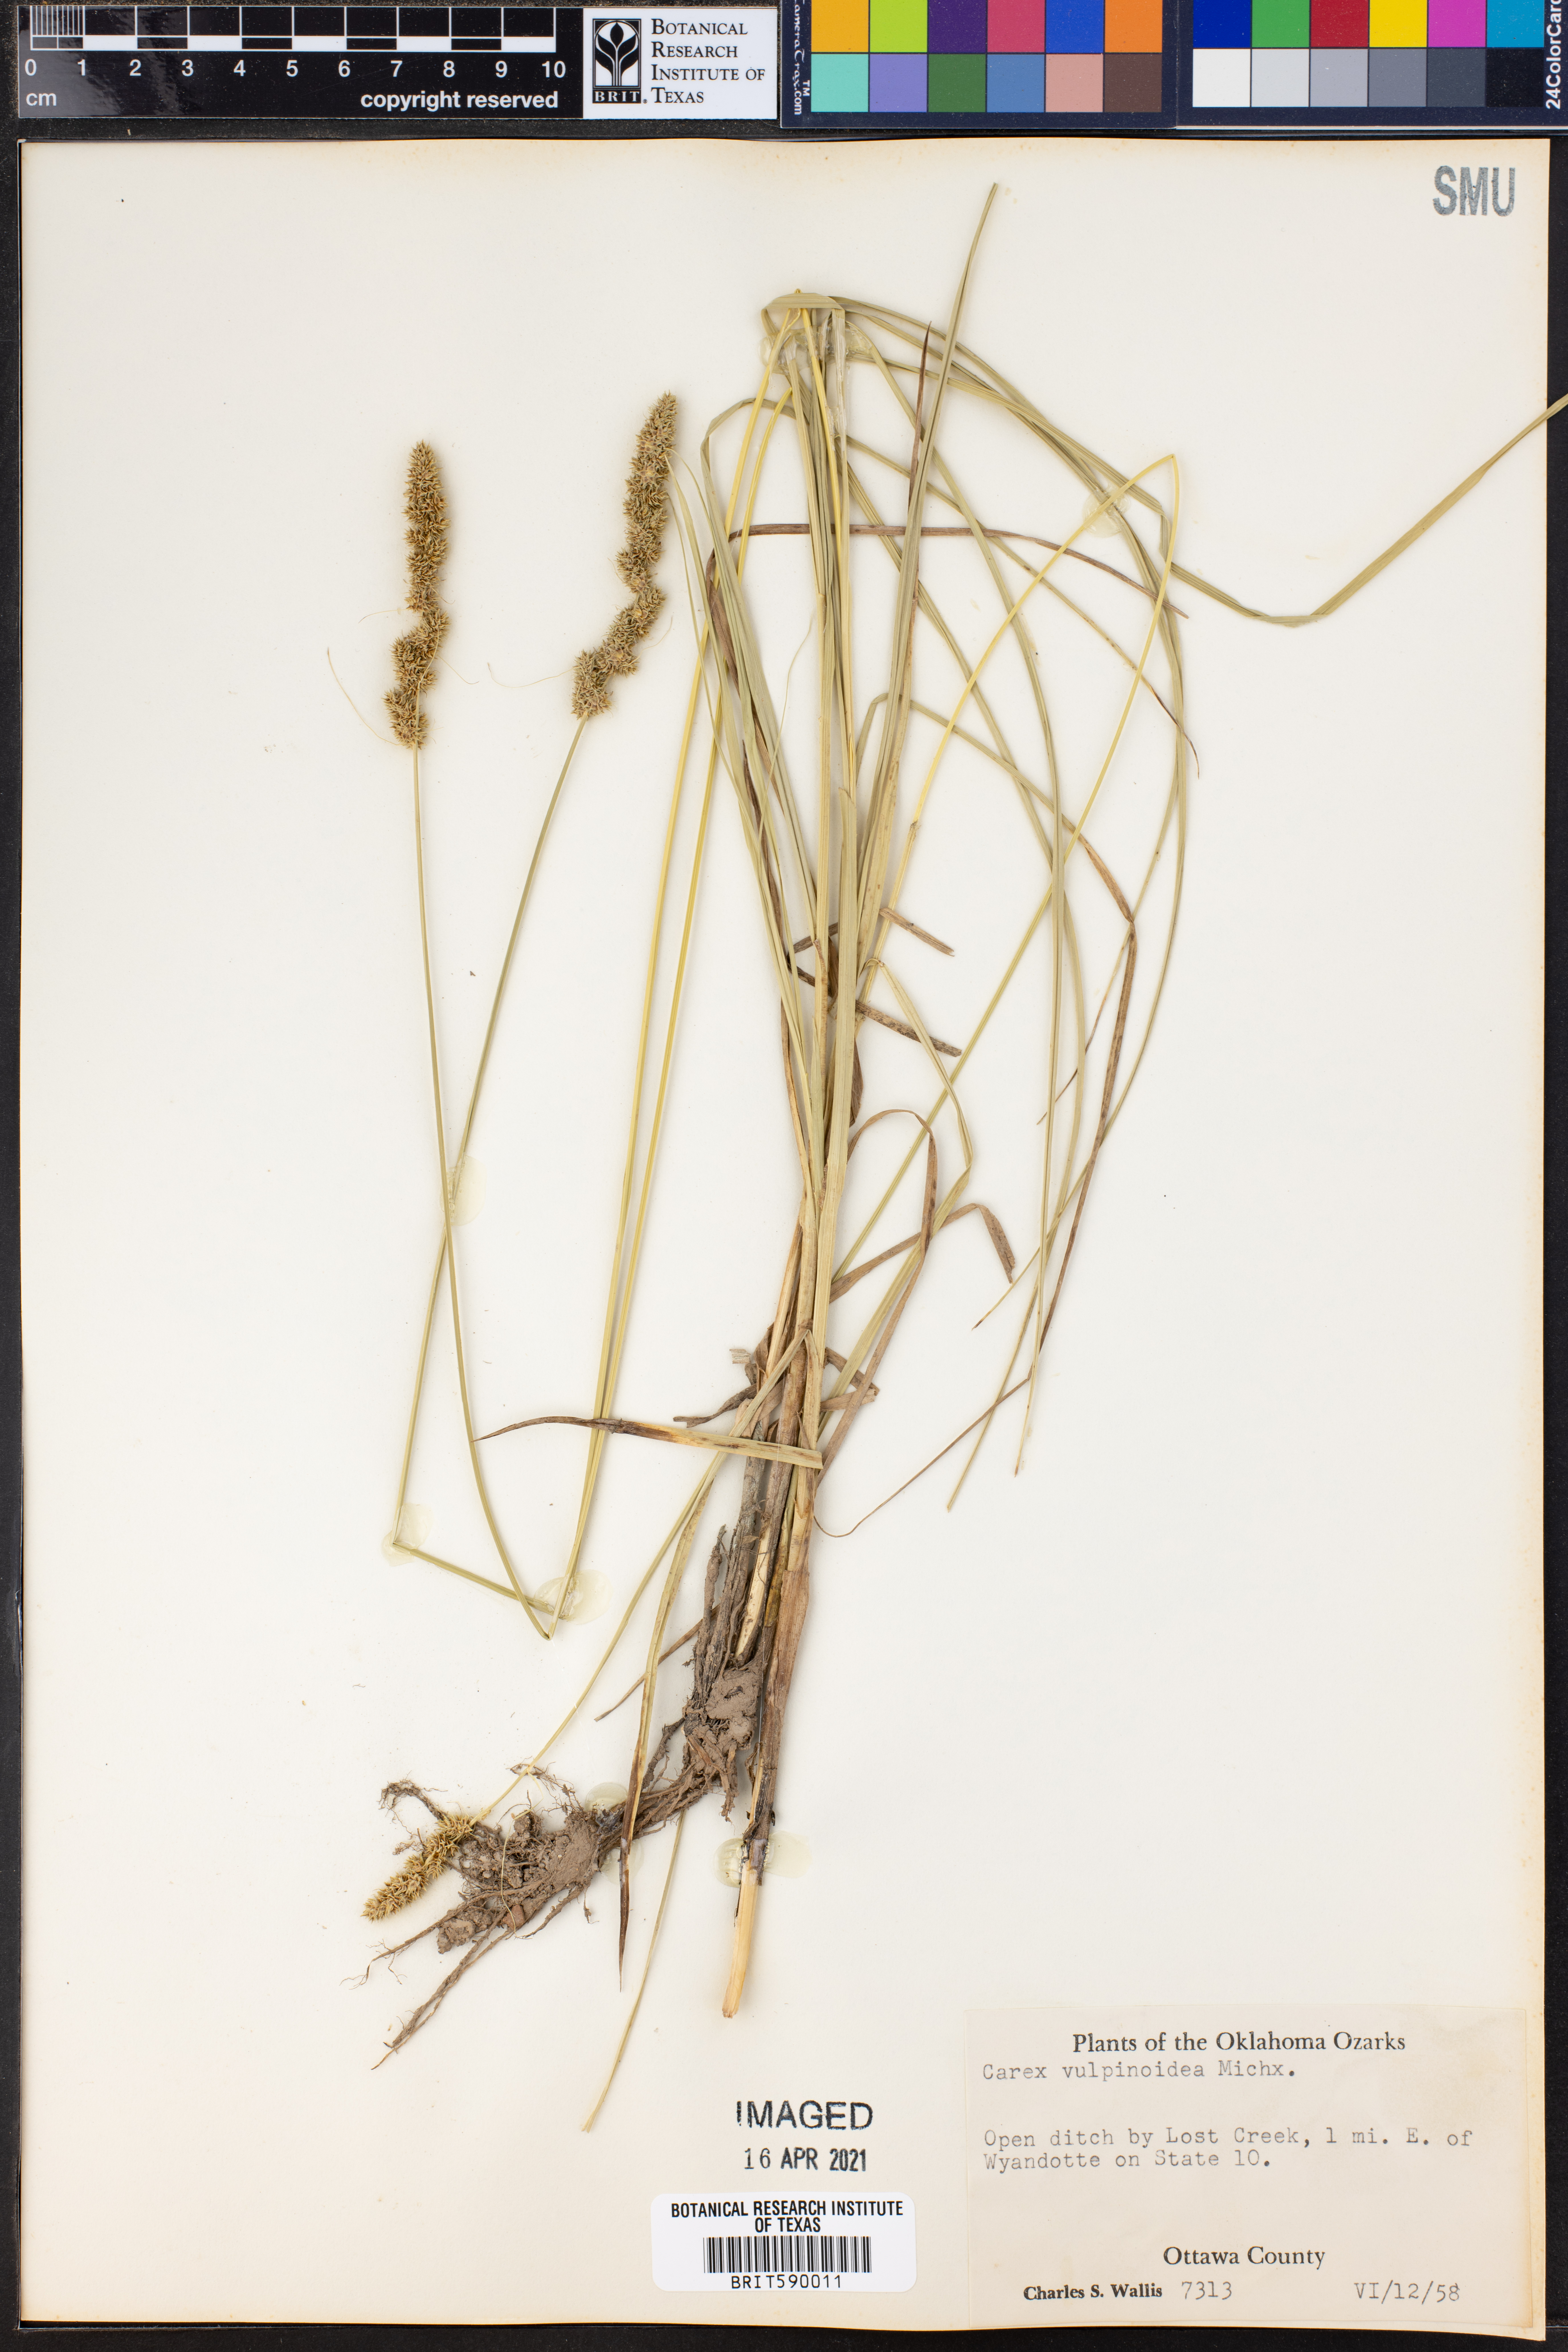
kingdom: Plantae
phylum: Tracheophyta
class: Liliopsida
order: Poales
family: Cyperaceae
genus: Carex
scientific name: Carex vulpinoidea
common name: American fox-sedge
